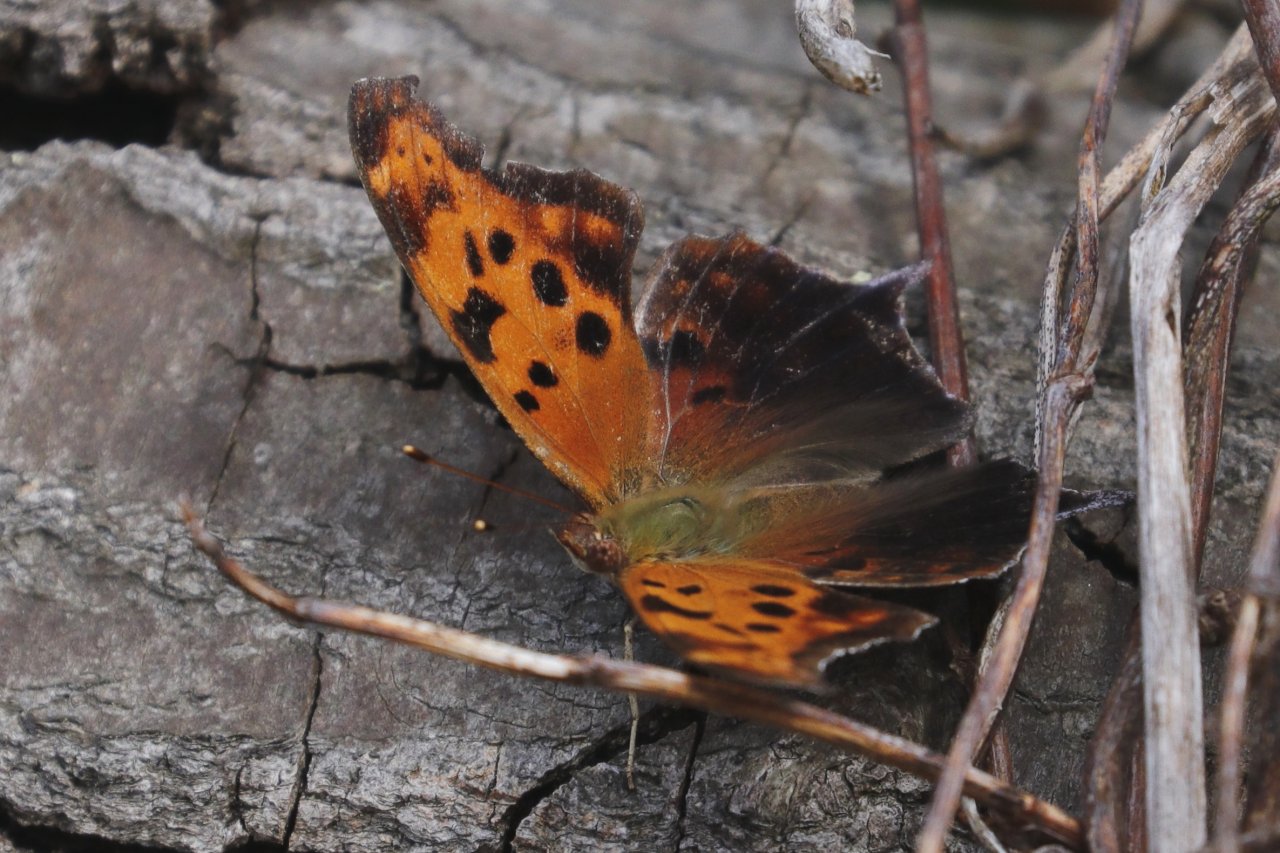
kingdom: Animalia
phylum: Arthropoda
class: Insecta
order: Lepidoptera
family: Nymphalidae
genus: Polygonia
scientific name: Polygonia interrogationis
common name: Question Mark
